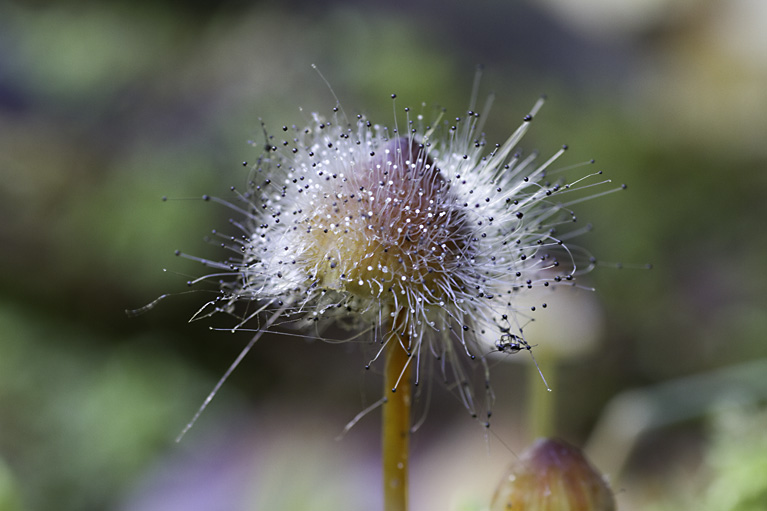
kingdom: Fungi
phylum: Mucoromycota
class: Mucoromycetes
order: Mucorales
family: Phycomycetaceae
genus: Spinellus
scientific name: Spinellus fusiger
